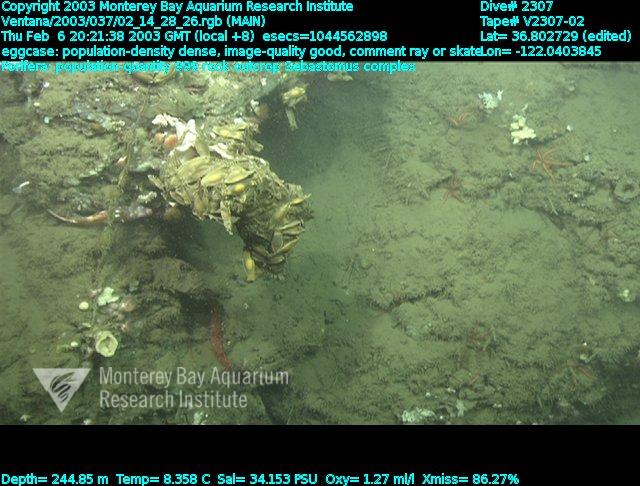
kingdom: Animalia
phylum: Porifera
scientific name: Porifera
